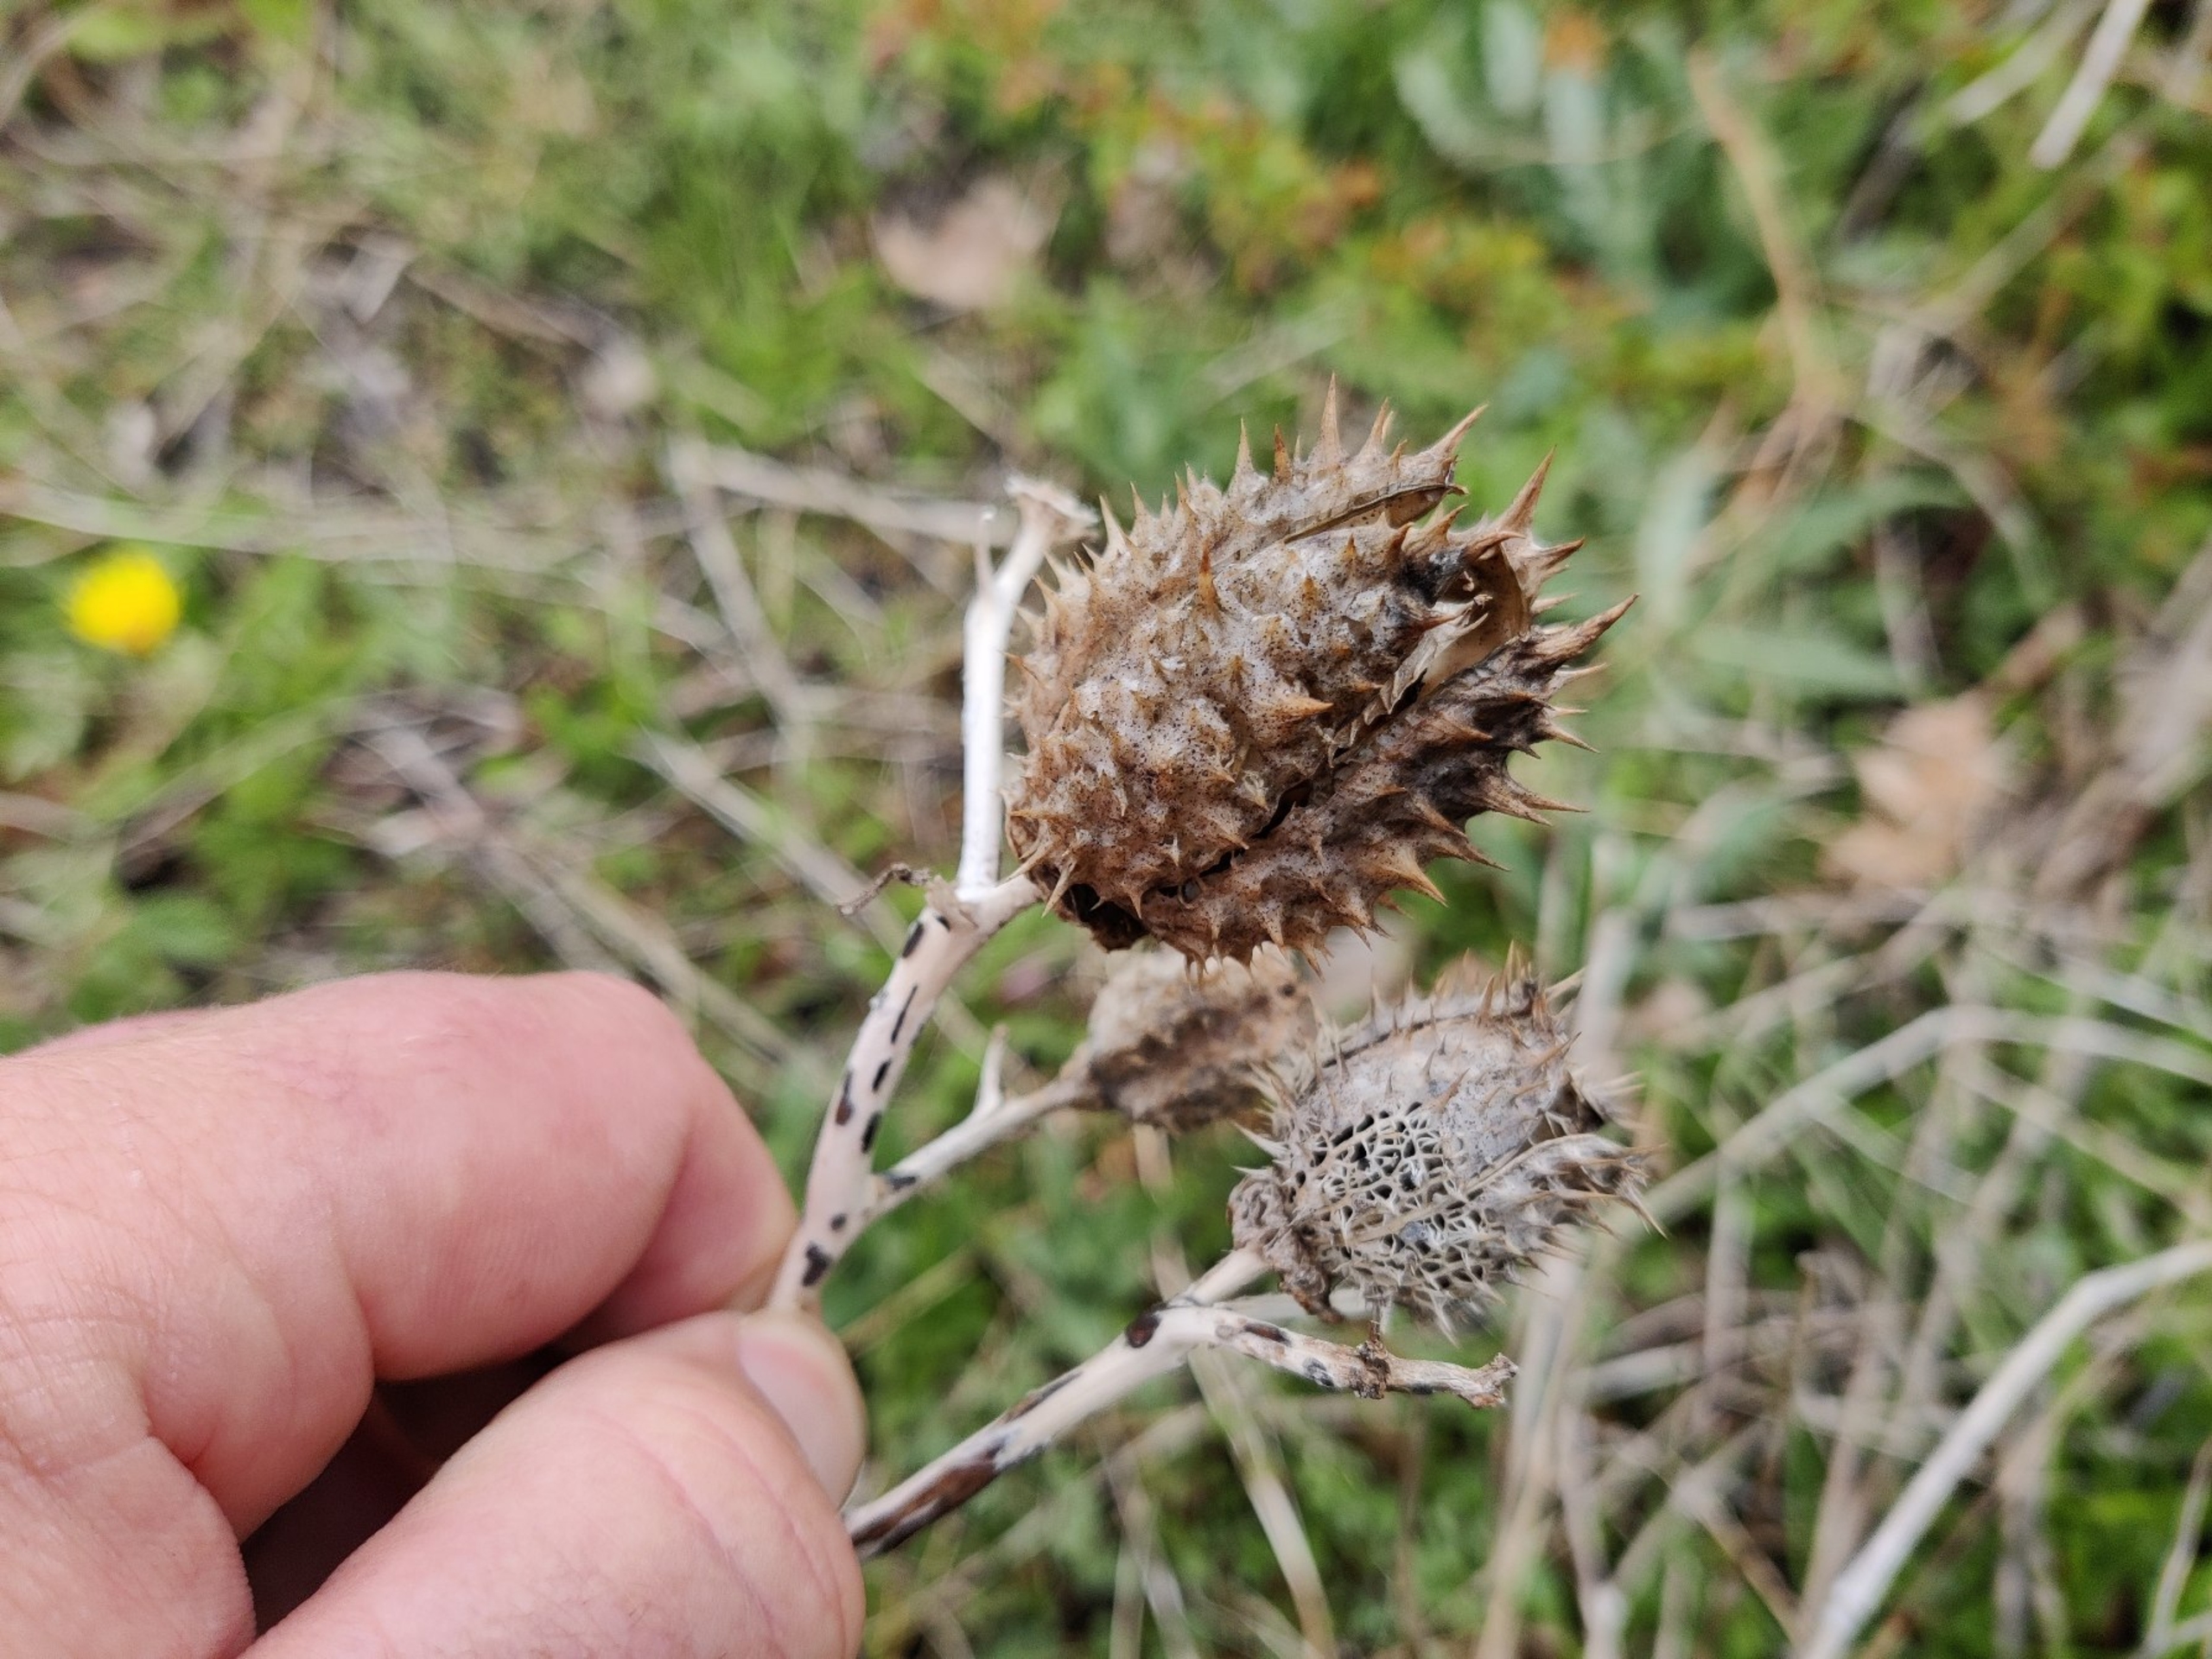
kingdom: Plantae
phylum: Tracheophyta
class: Magnoliopsida
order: Solanales
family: Solanaceae
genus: Datura
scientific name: Datura stramonium
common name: Pigæble
